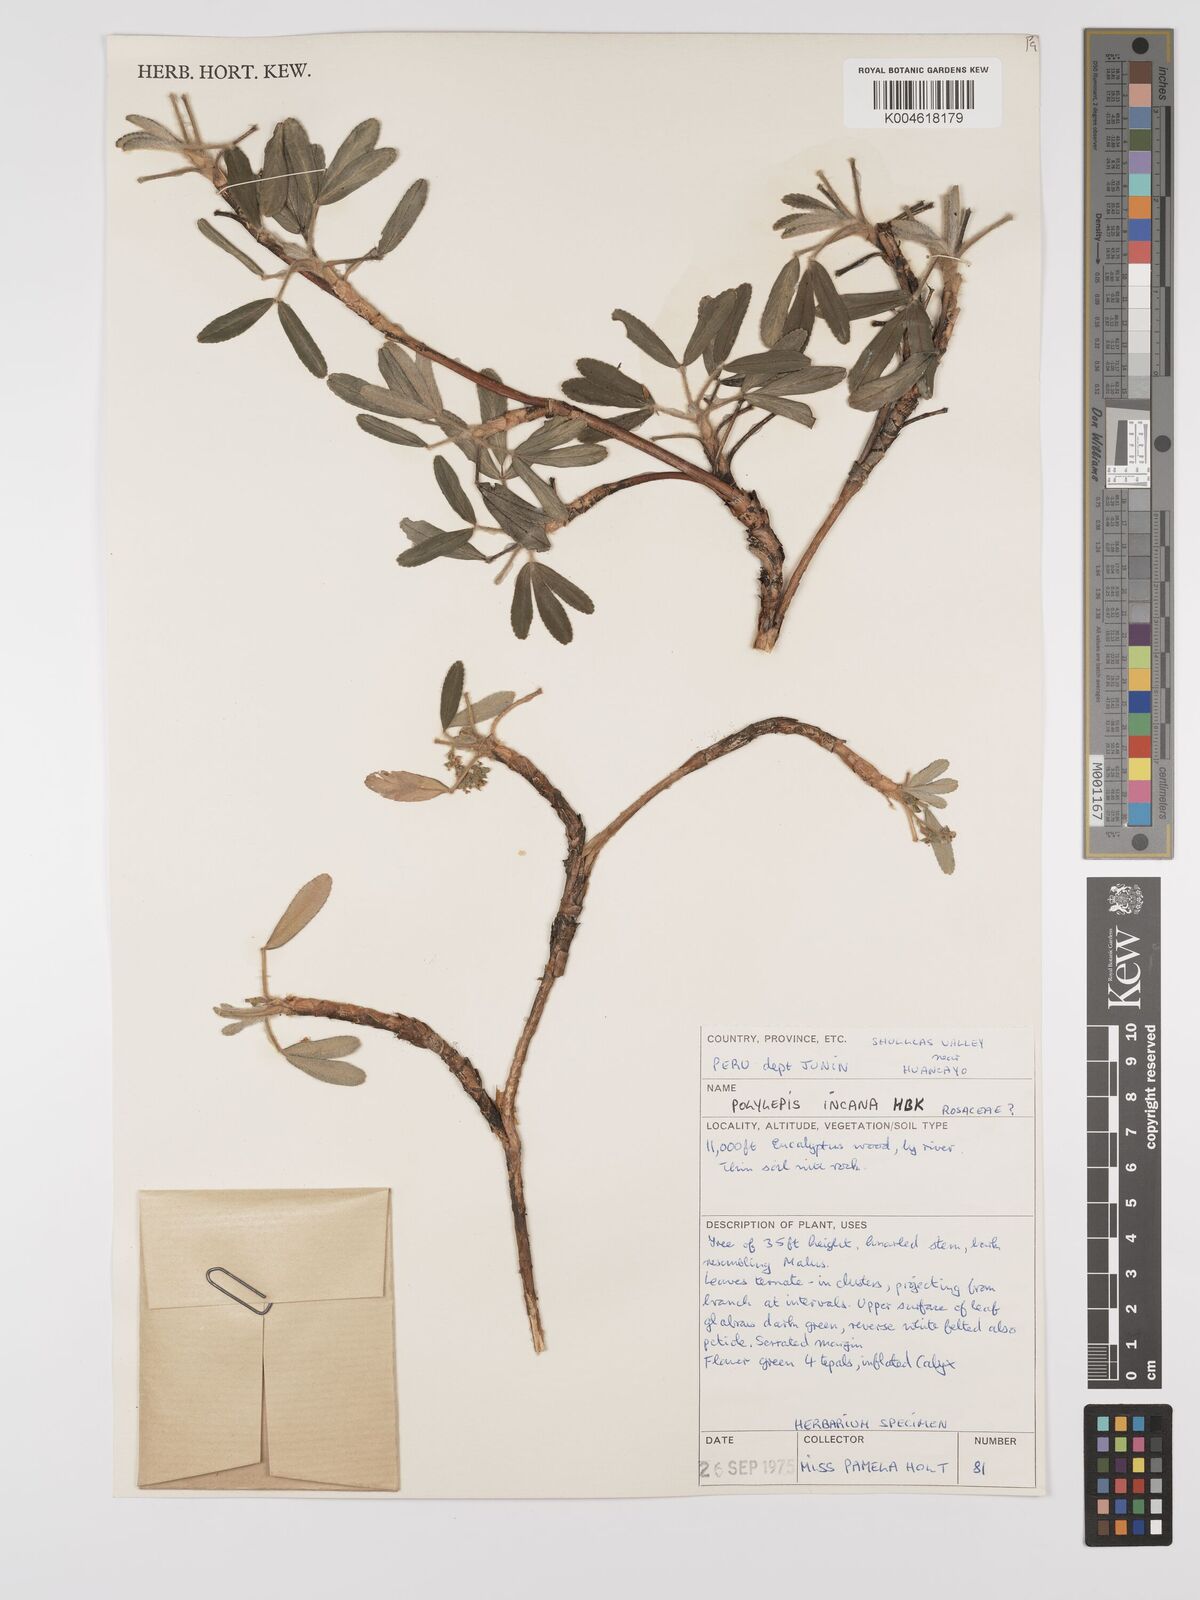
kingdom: Plantae
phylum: Tracheophyta
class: Magnoliopsida
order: Rosales
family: Rosaceae
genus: Polylepis
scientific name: Polylepis incana
